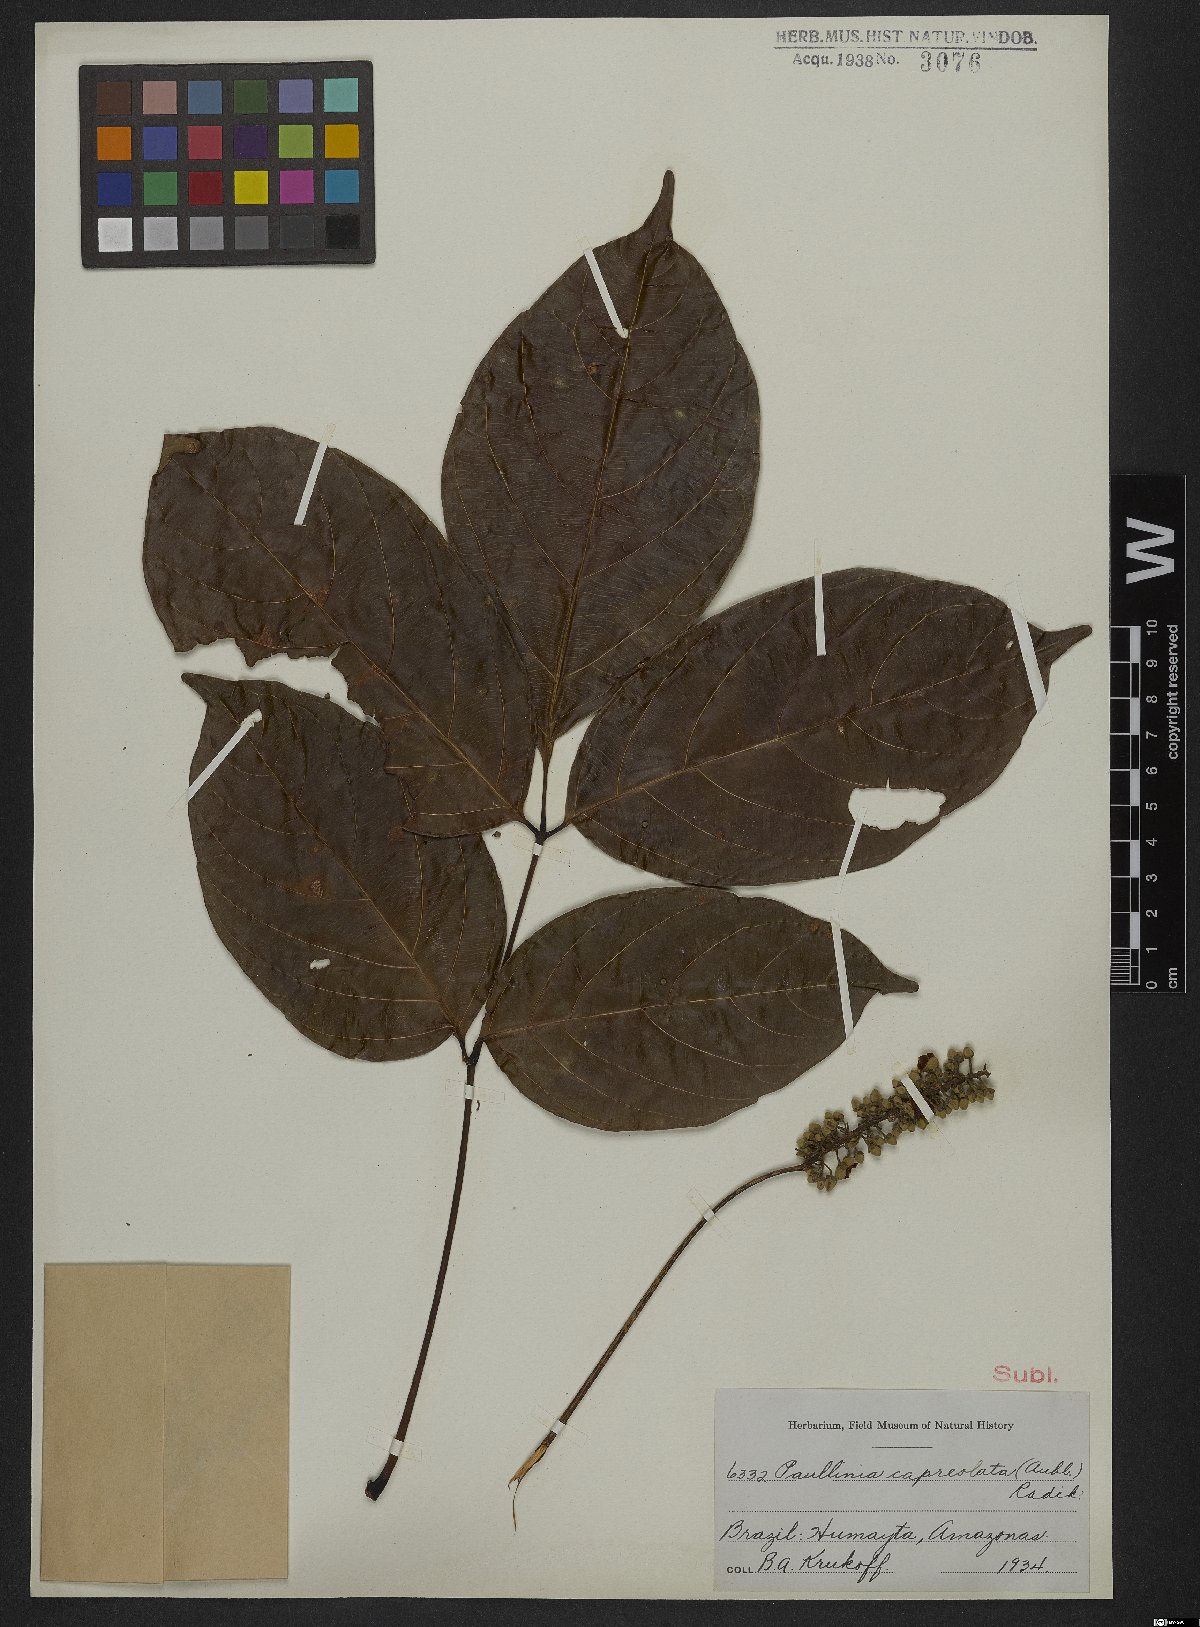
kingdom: Plantae
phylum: Tracheophyta
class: Magnoliopsida
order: Sapindales
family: Sapindaceae
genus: Paullinia
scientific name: Paullinia capreolata
